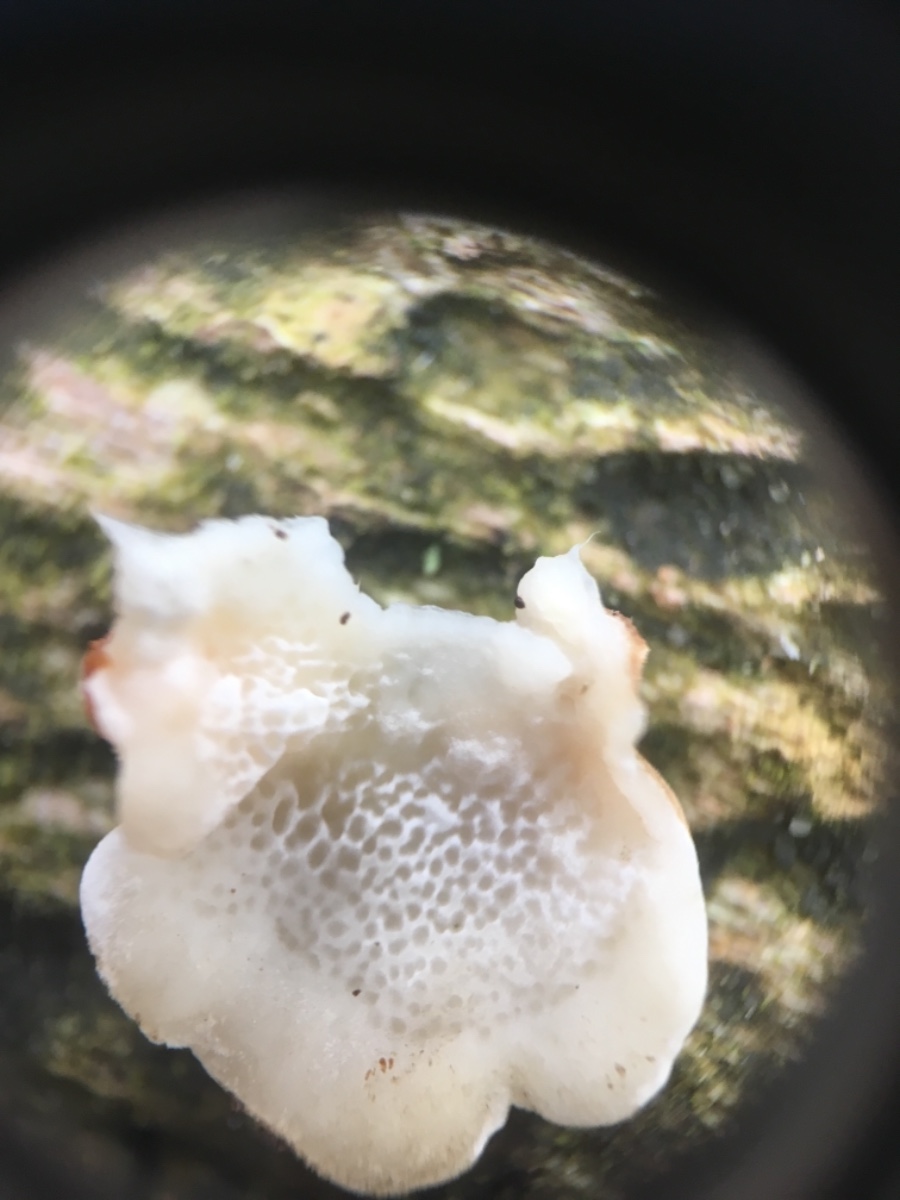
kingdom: Fungi
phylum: Basidiomycota
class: Agaricomycetes
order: Polyporales
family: Steccherinaceae
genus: Antrodiella
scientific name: Antrodiella
